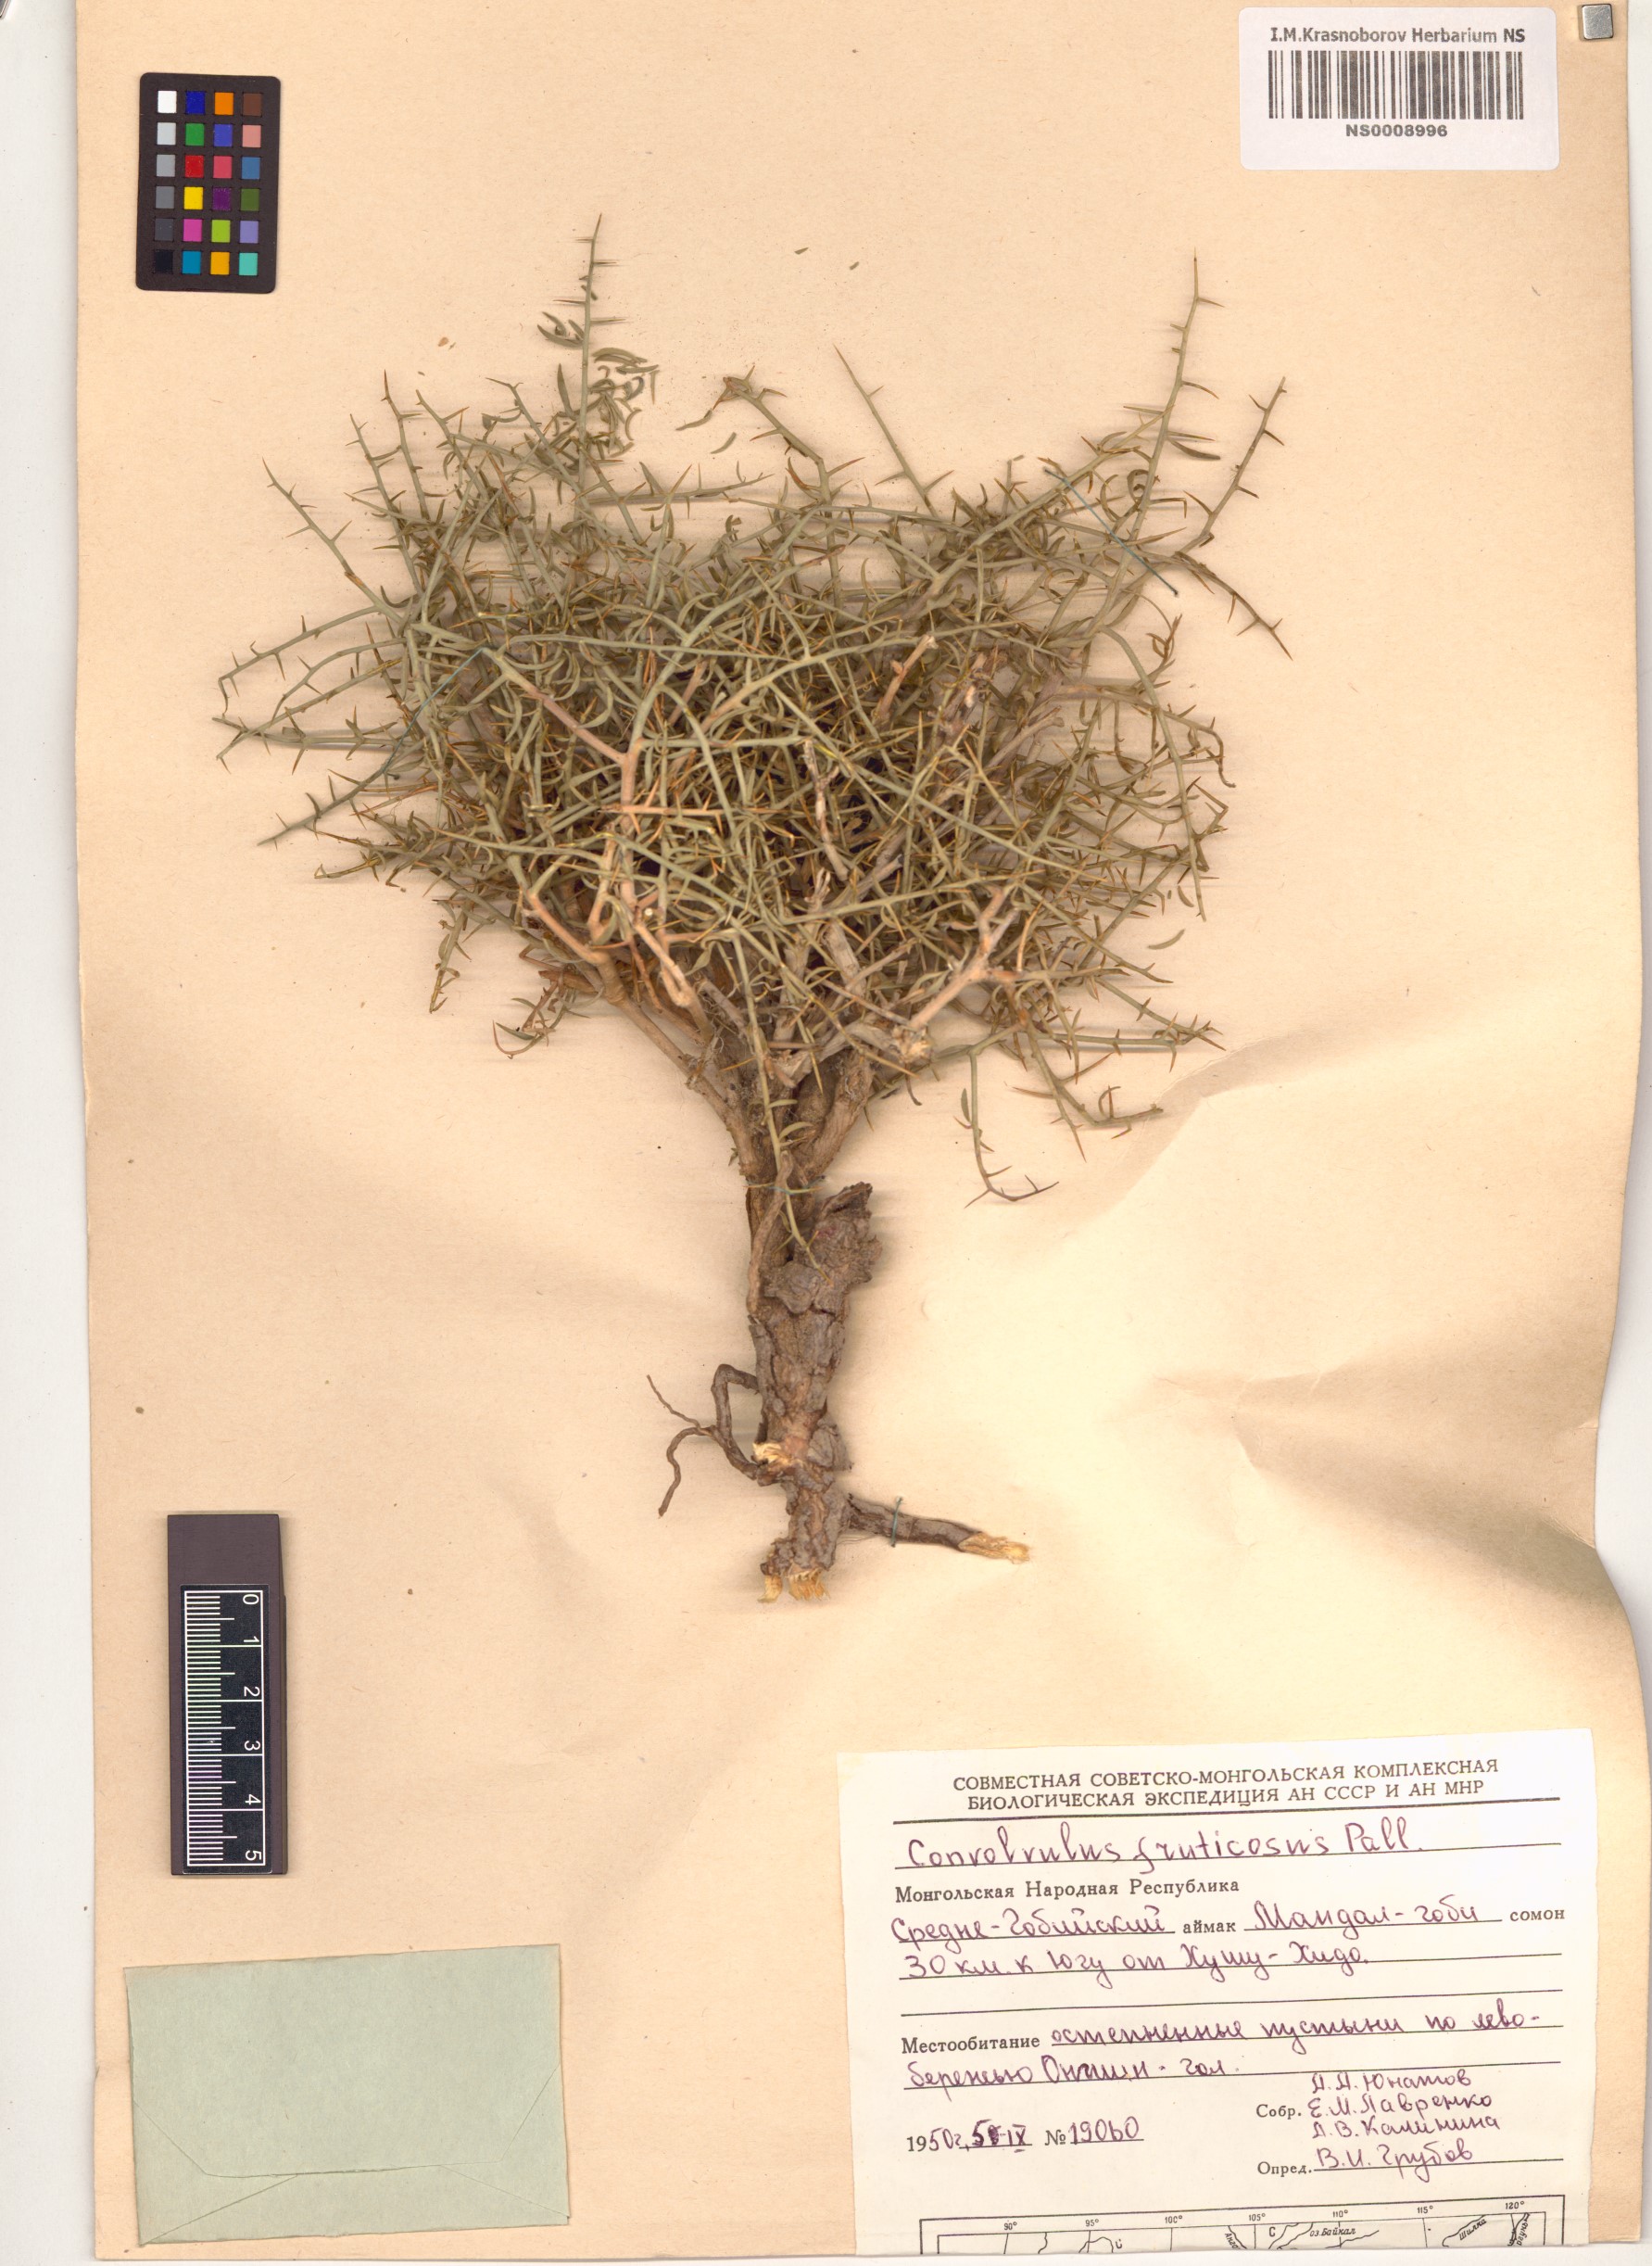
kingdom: Plantae
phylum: Tracheophyta
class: Magnoliopsida
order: Solanales
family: Convolvulaceae
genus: Convolvulus
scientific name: Convolvulus fruticosus
